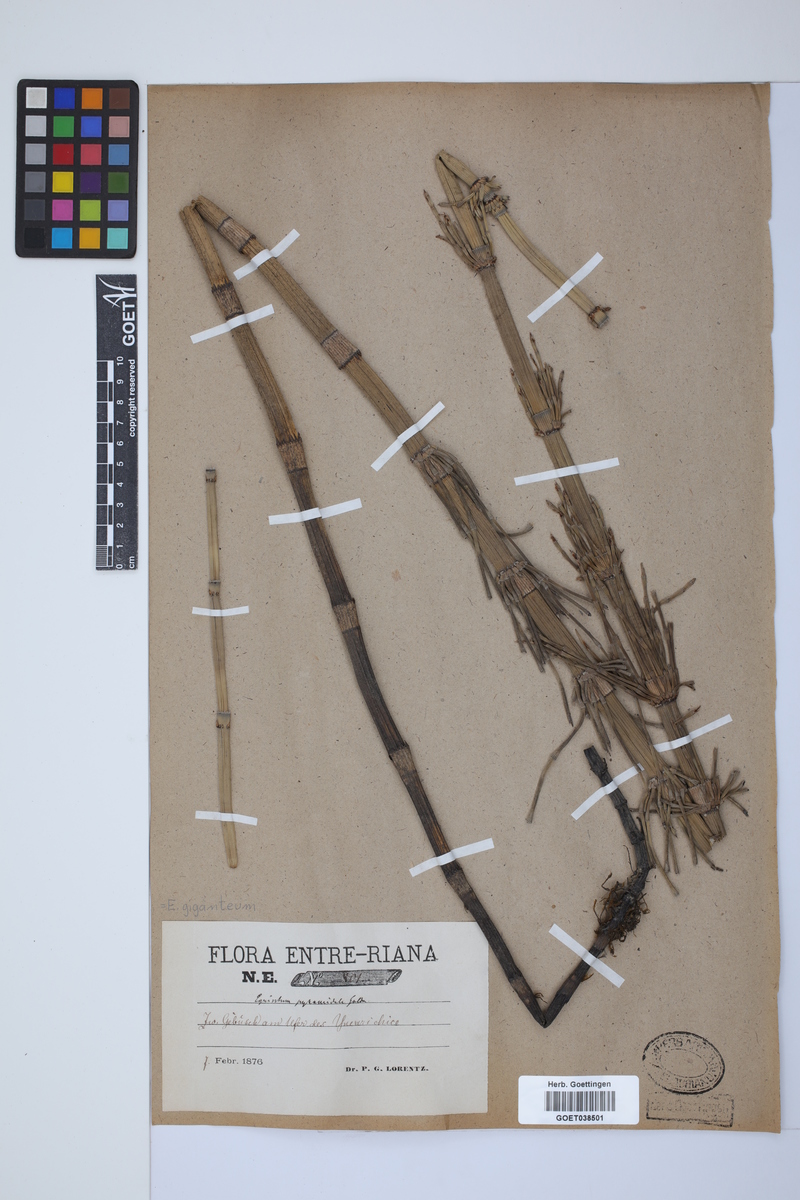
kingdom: Plantae
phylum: Tracheophyta
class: Polypodiopsida
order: Equisetales
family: Equisetaceae
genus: Equisetum
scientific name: Equisetum giganteum
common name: Giant horsetail
